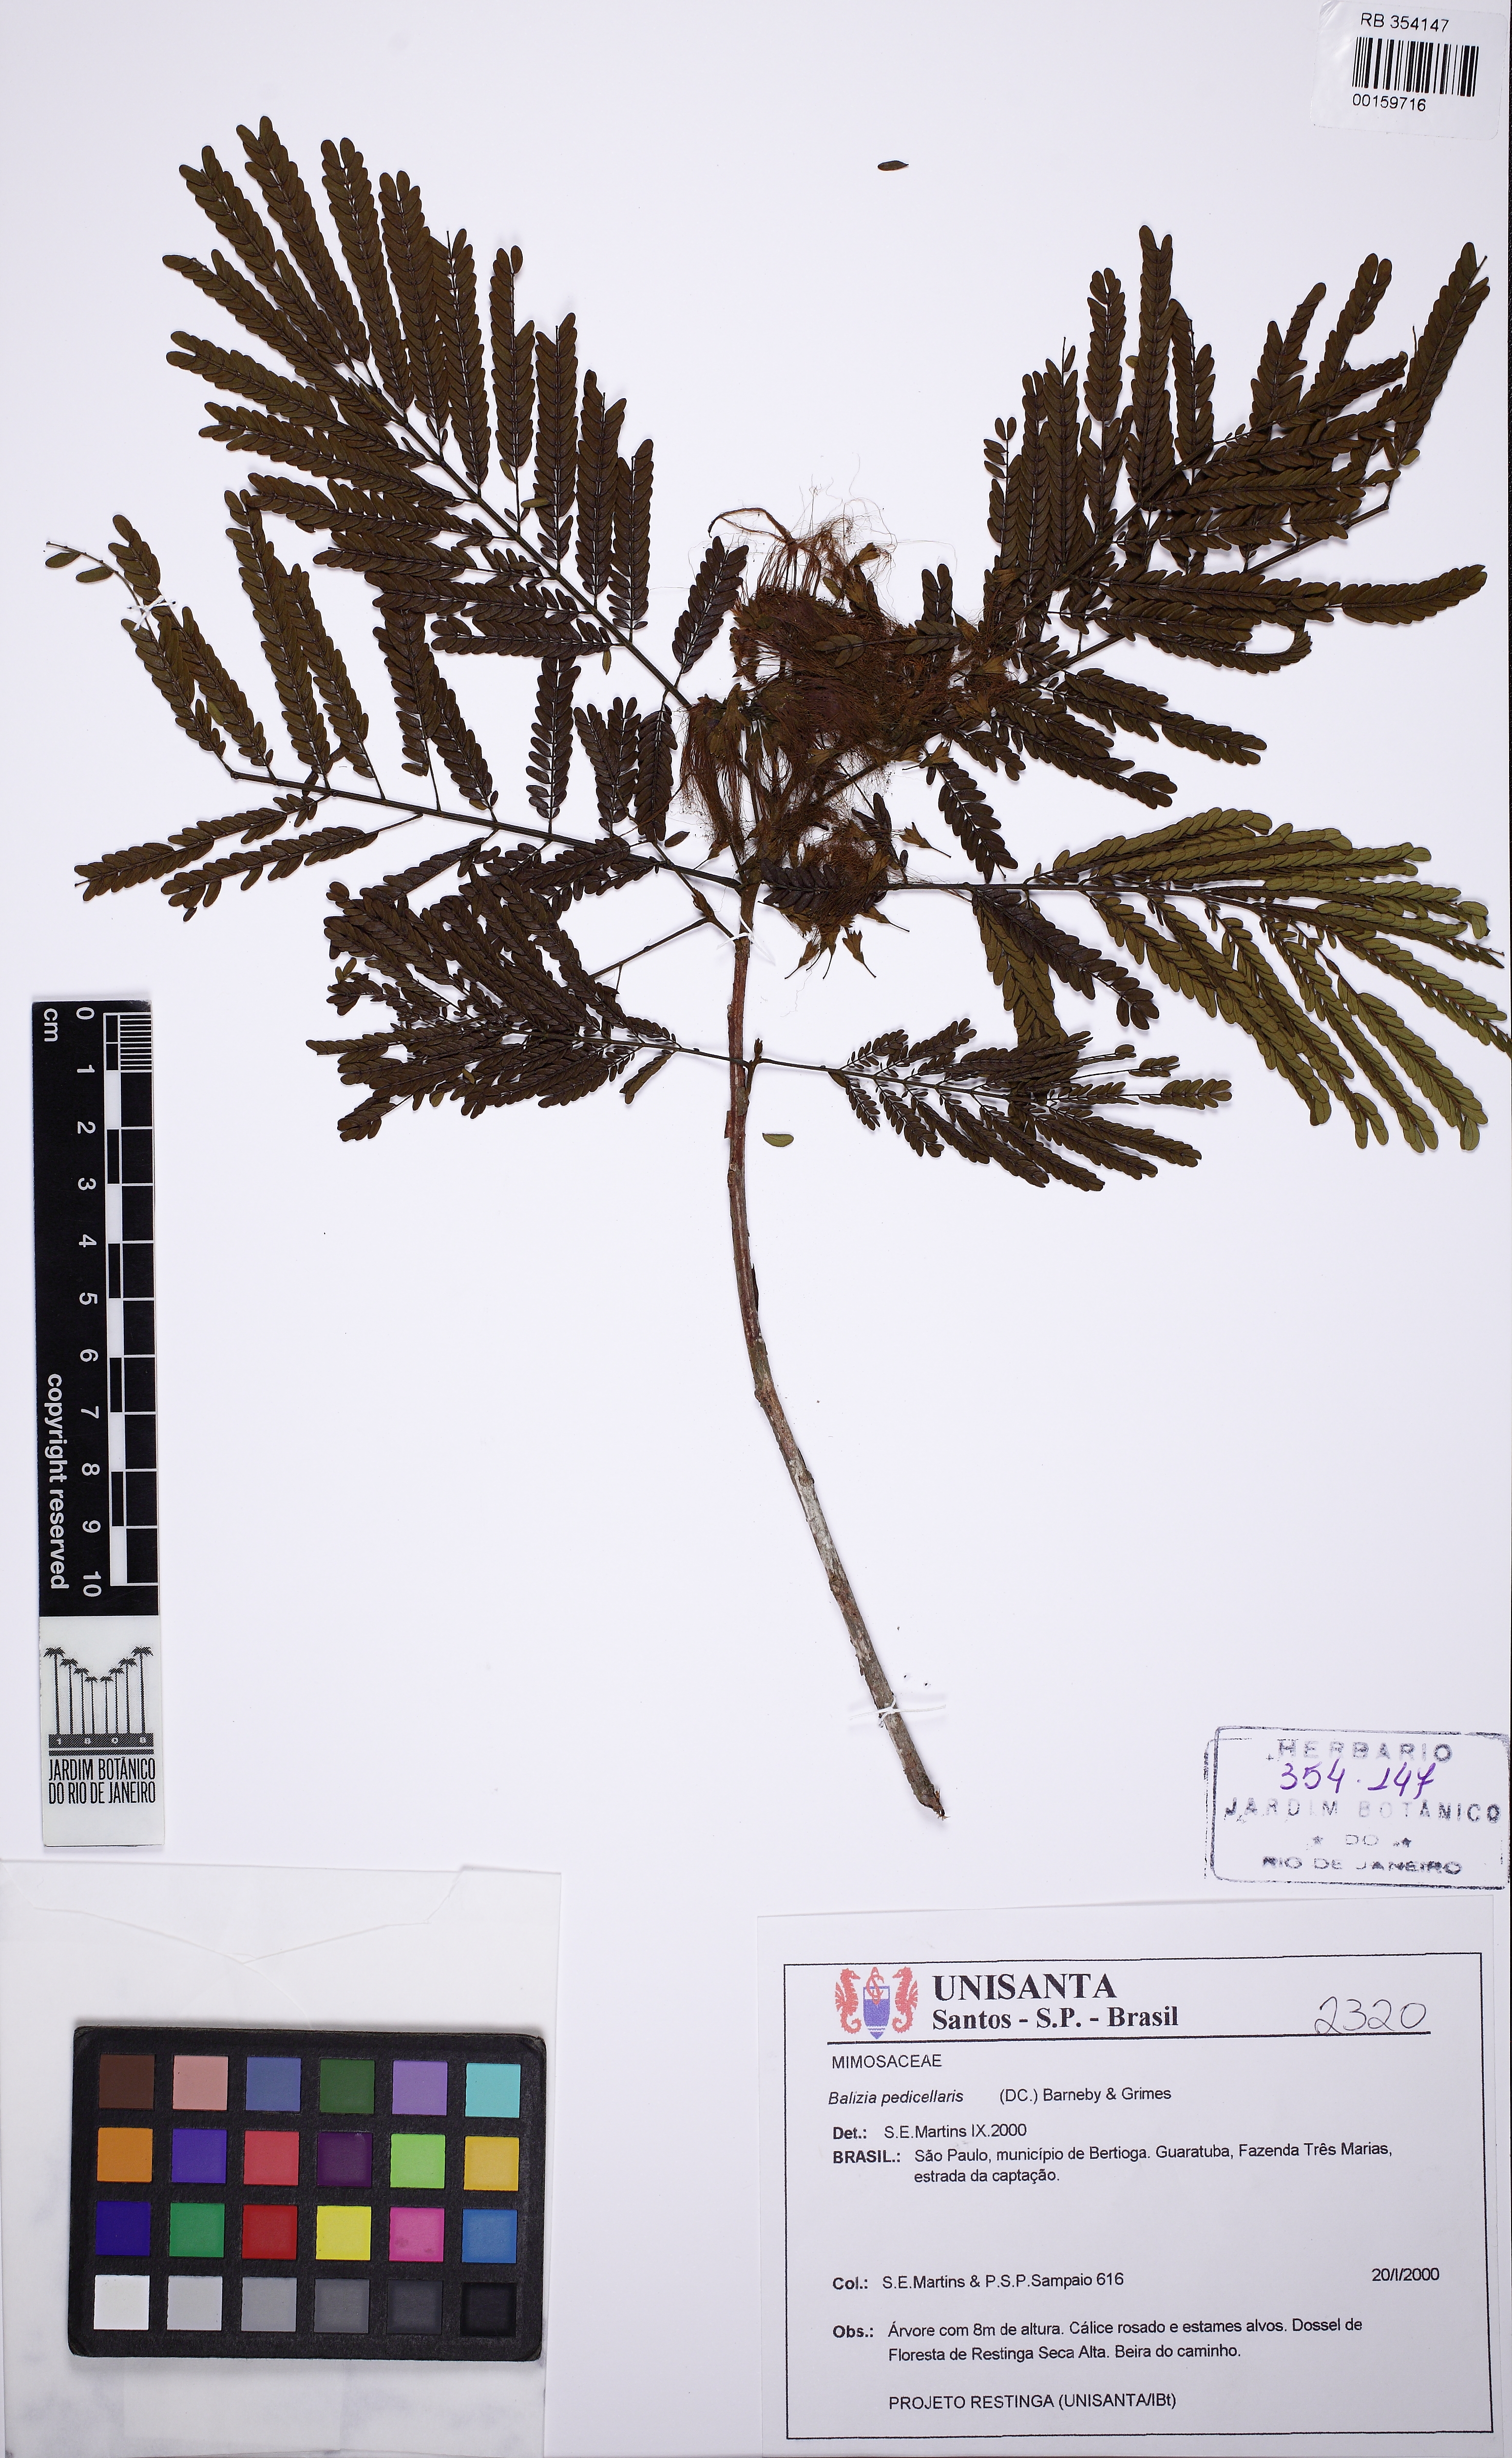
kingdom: Plantae
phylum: Tracheophyta
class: Magnoliopsida
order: Fabales
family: Fabaceae
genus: Balizia
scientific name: Balizia pedicellaris
